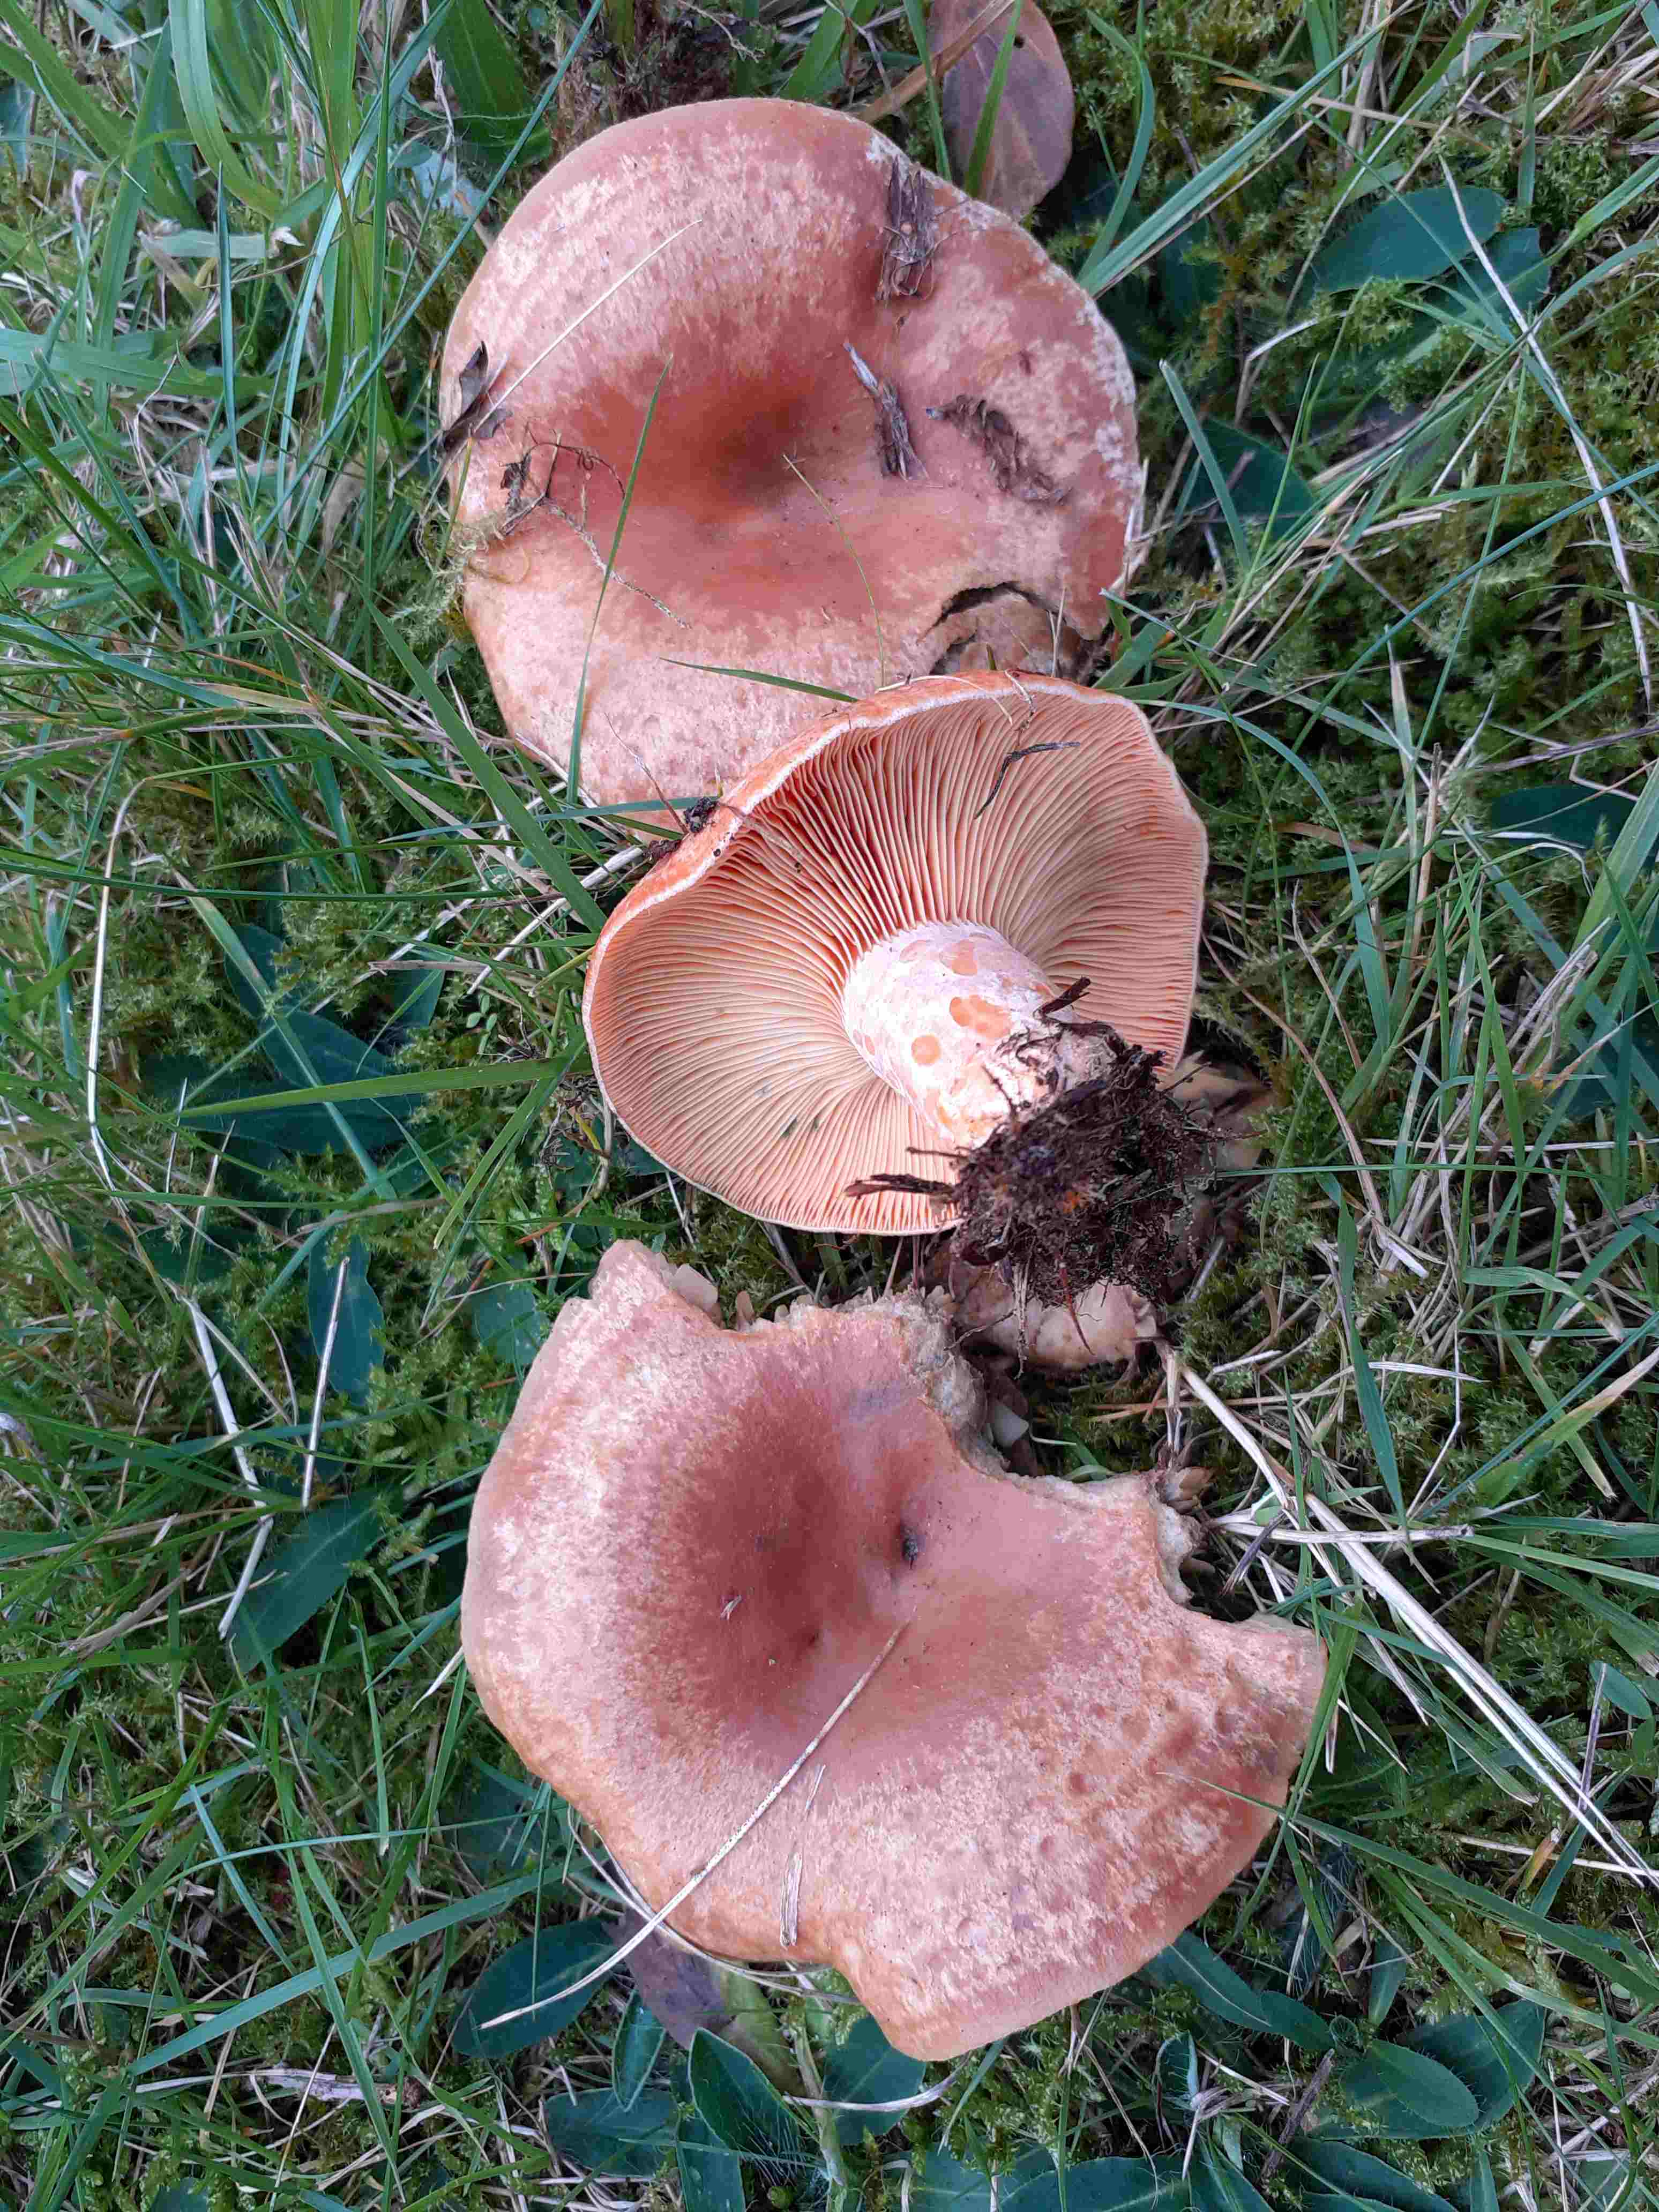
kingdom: Fungi
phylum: Basidiomycota
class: Agaricomycetes
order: Russulales
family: Russulaceae
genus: Lactarius
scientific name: Lactarius deliciosus
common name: velsmagende mælkehat
